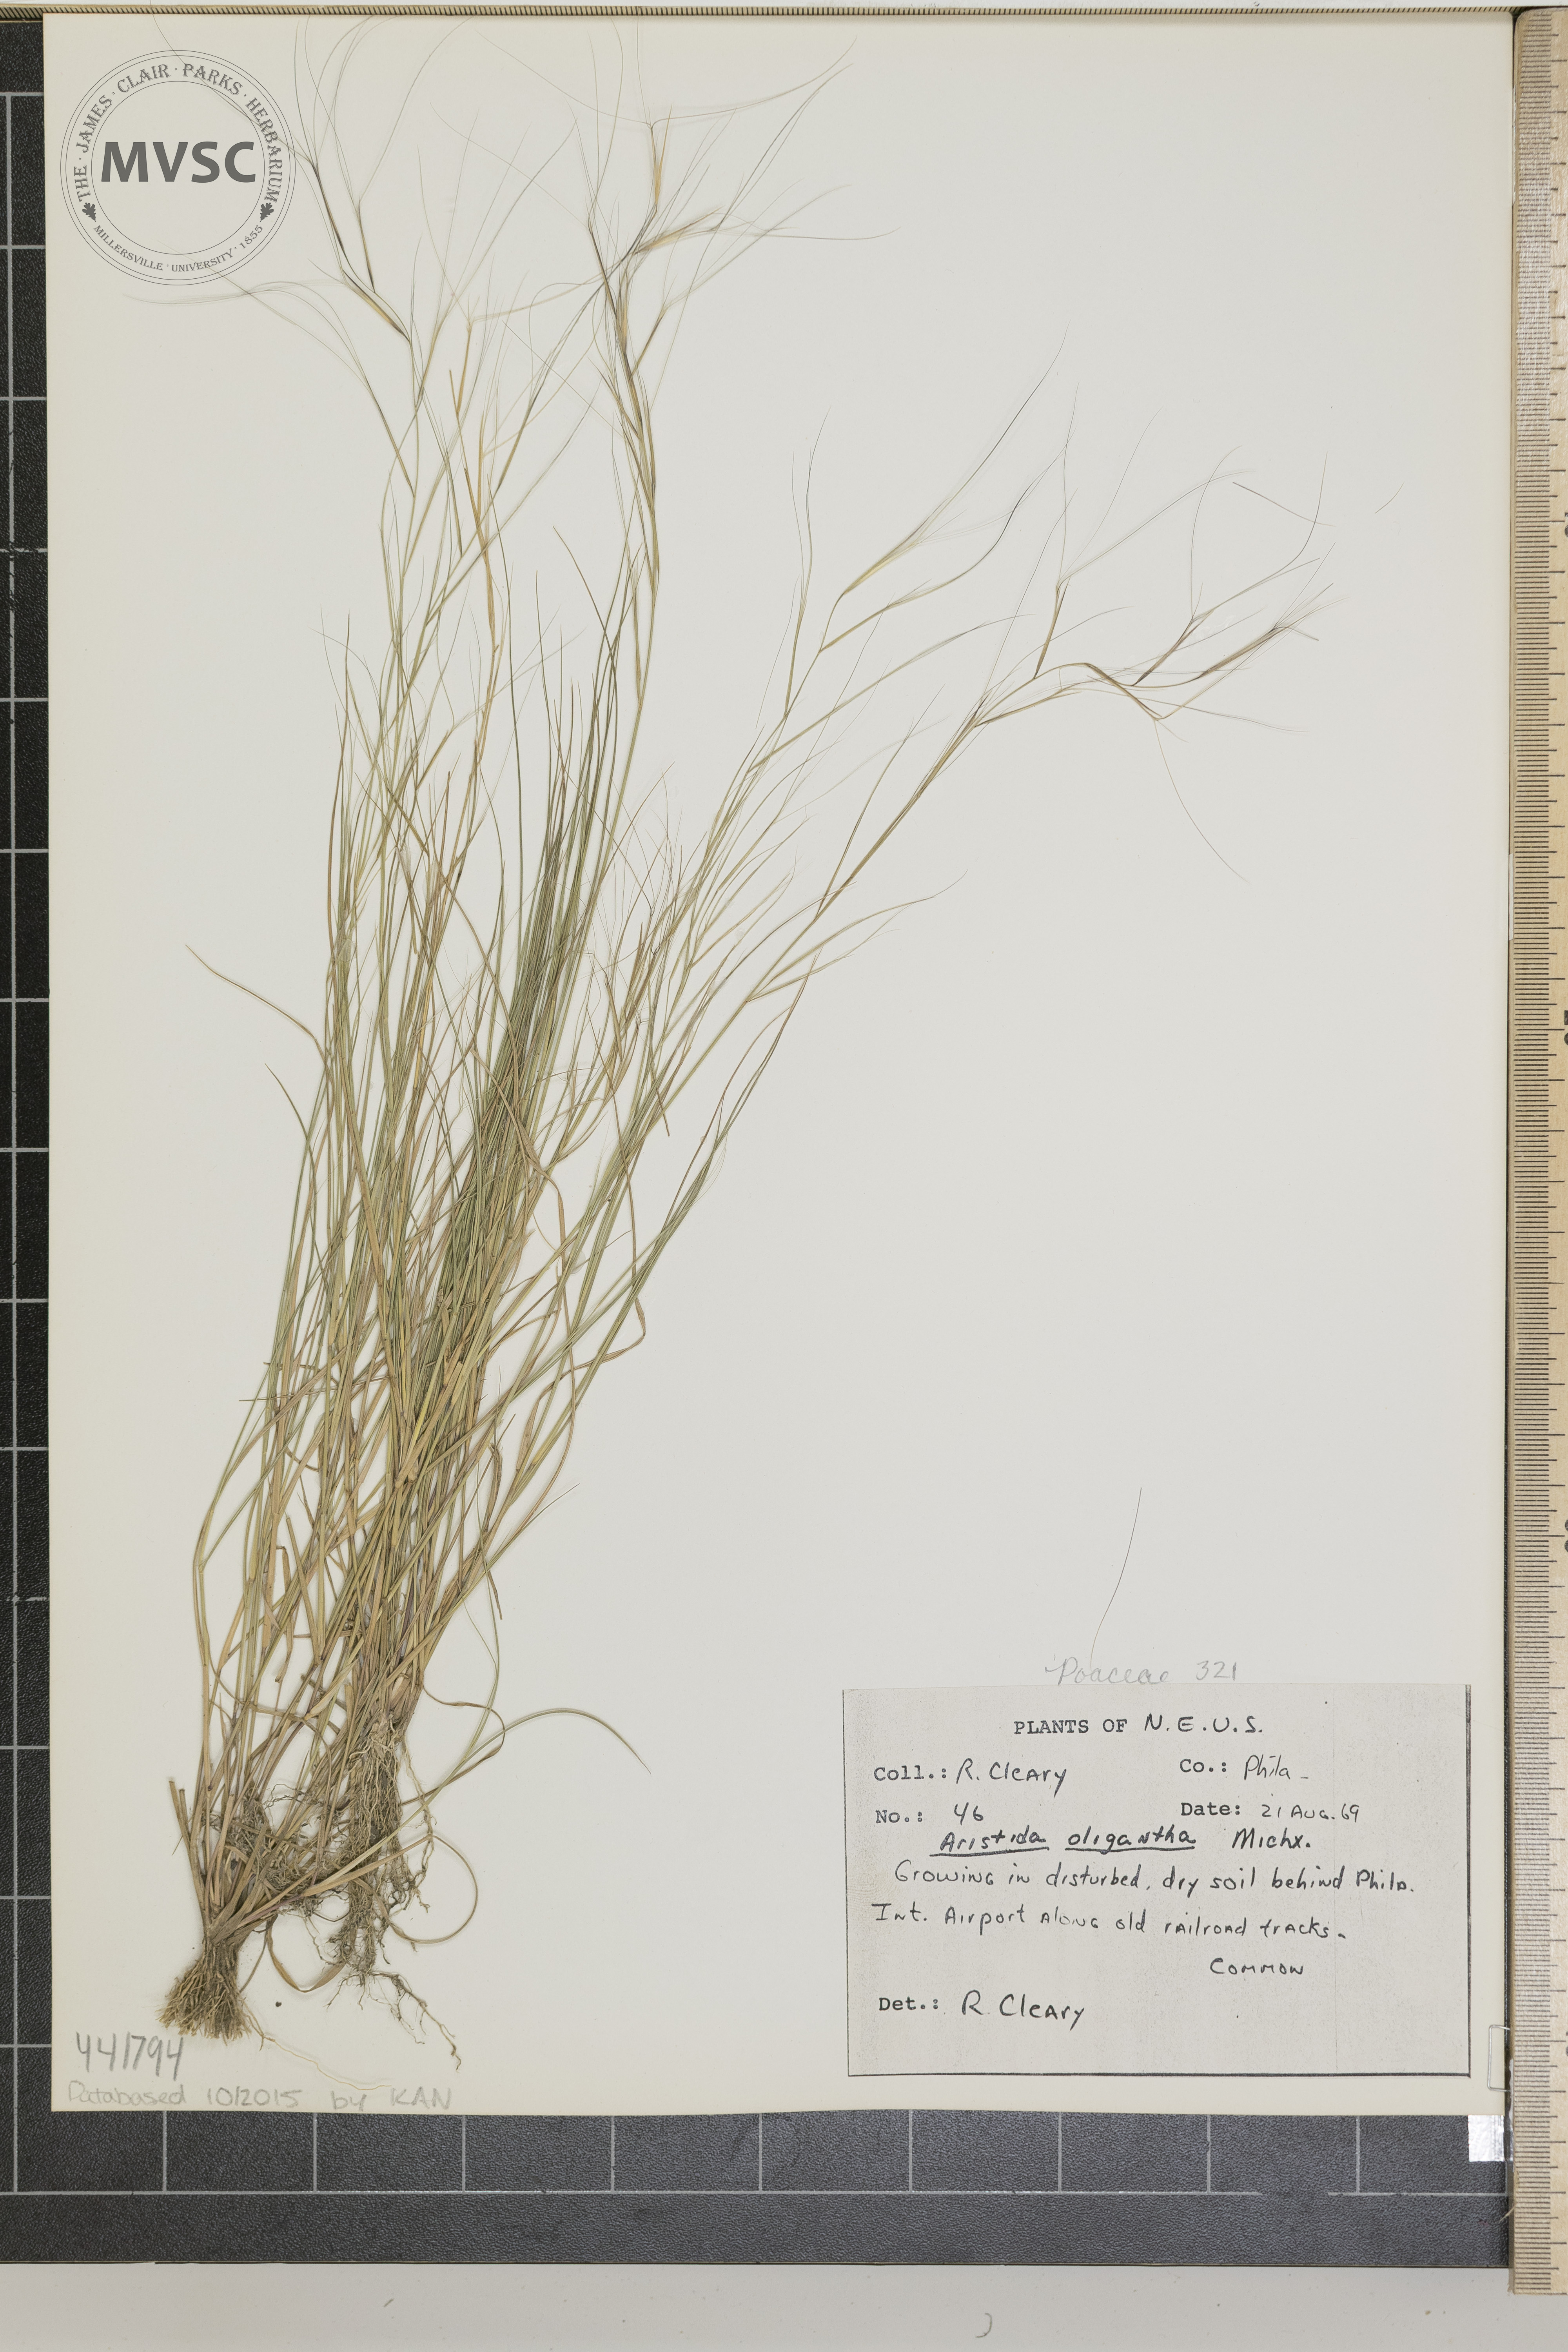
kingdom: Plantae
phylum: Tracheophyta
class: Liliopsida
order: Poales
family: Poaceae
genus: Aristida
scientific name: Aristida oligantha
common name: Few-flowered aristida
